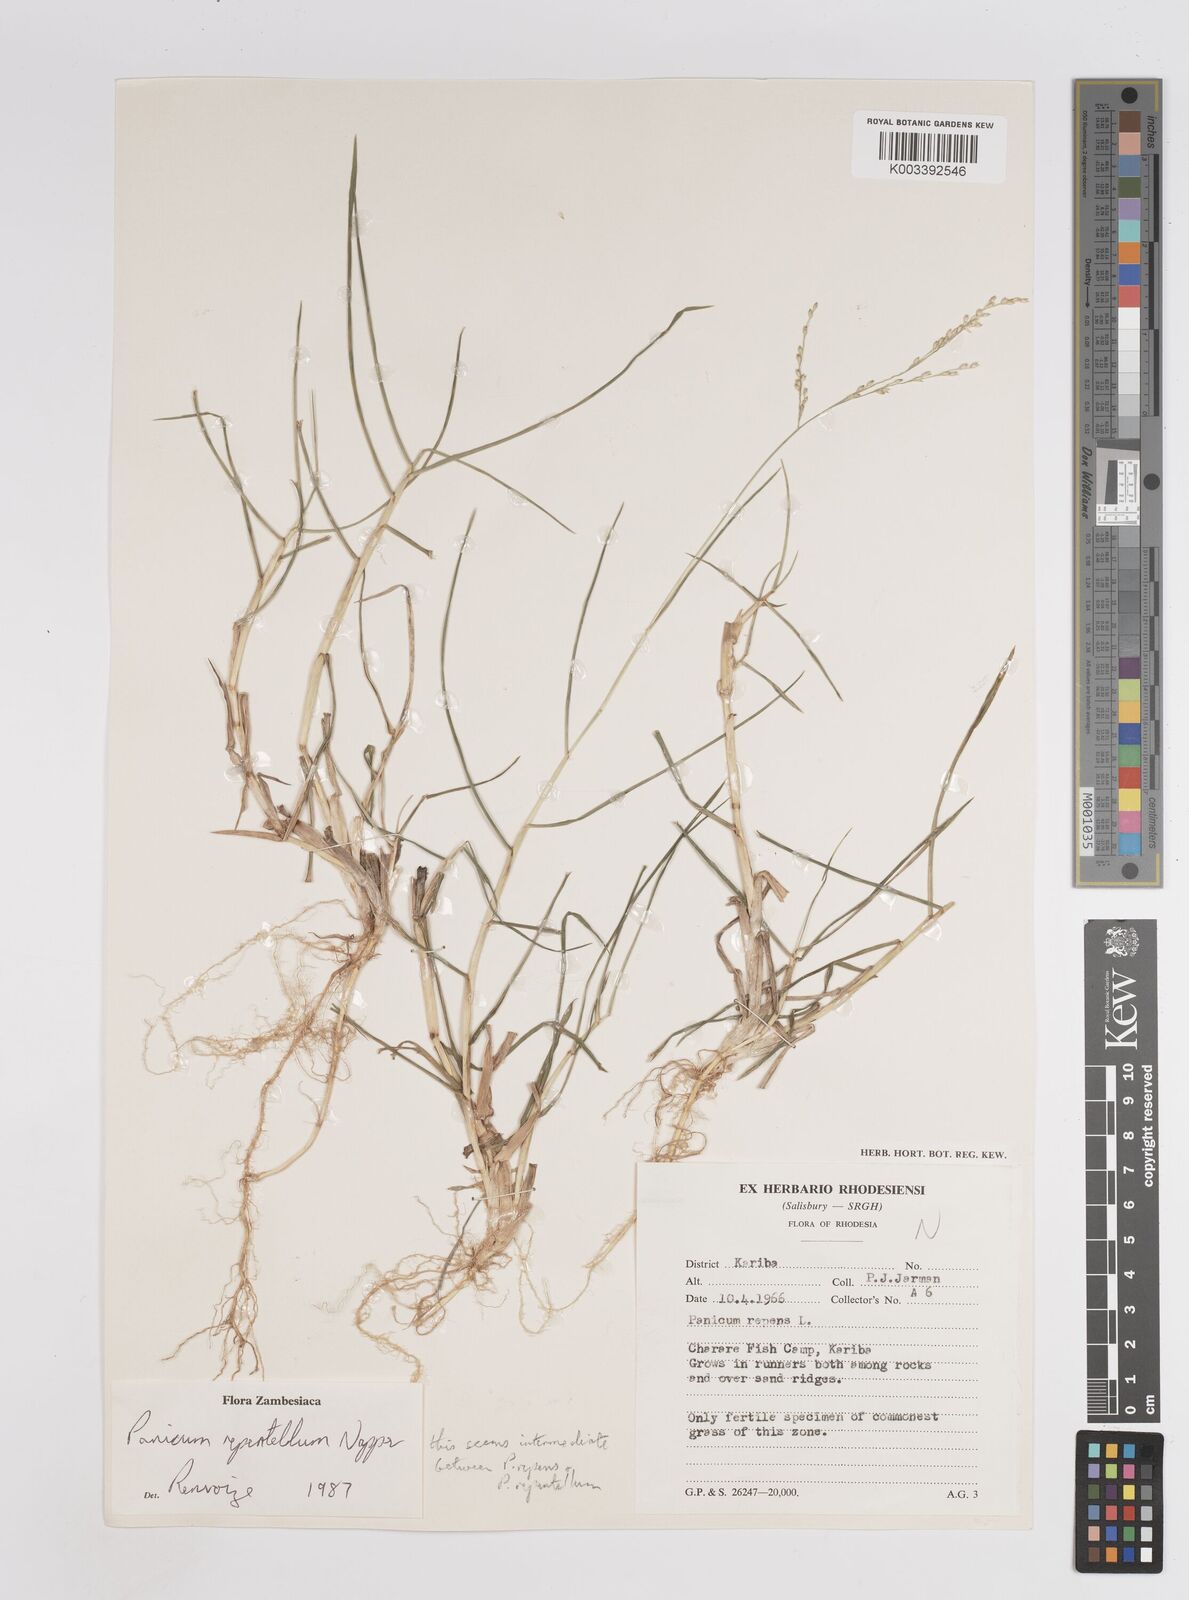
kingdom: Plantae
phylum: Tracheophyta
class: Liliopsida
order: Poales
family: Poaceae
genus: Panicum
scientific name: Panicum hygrocharis
